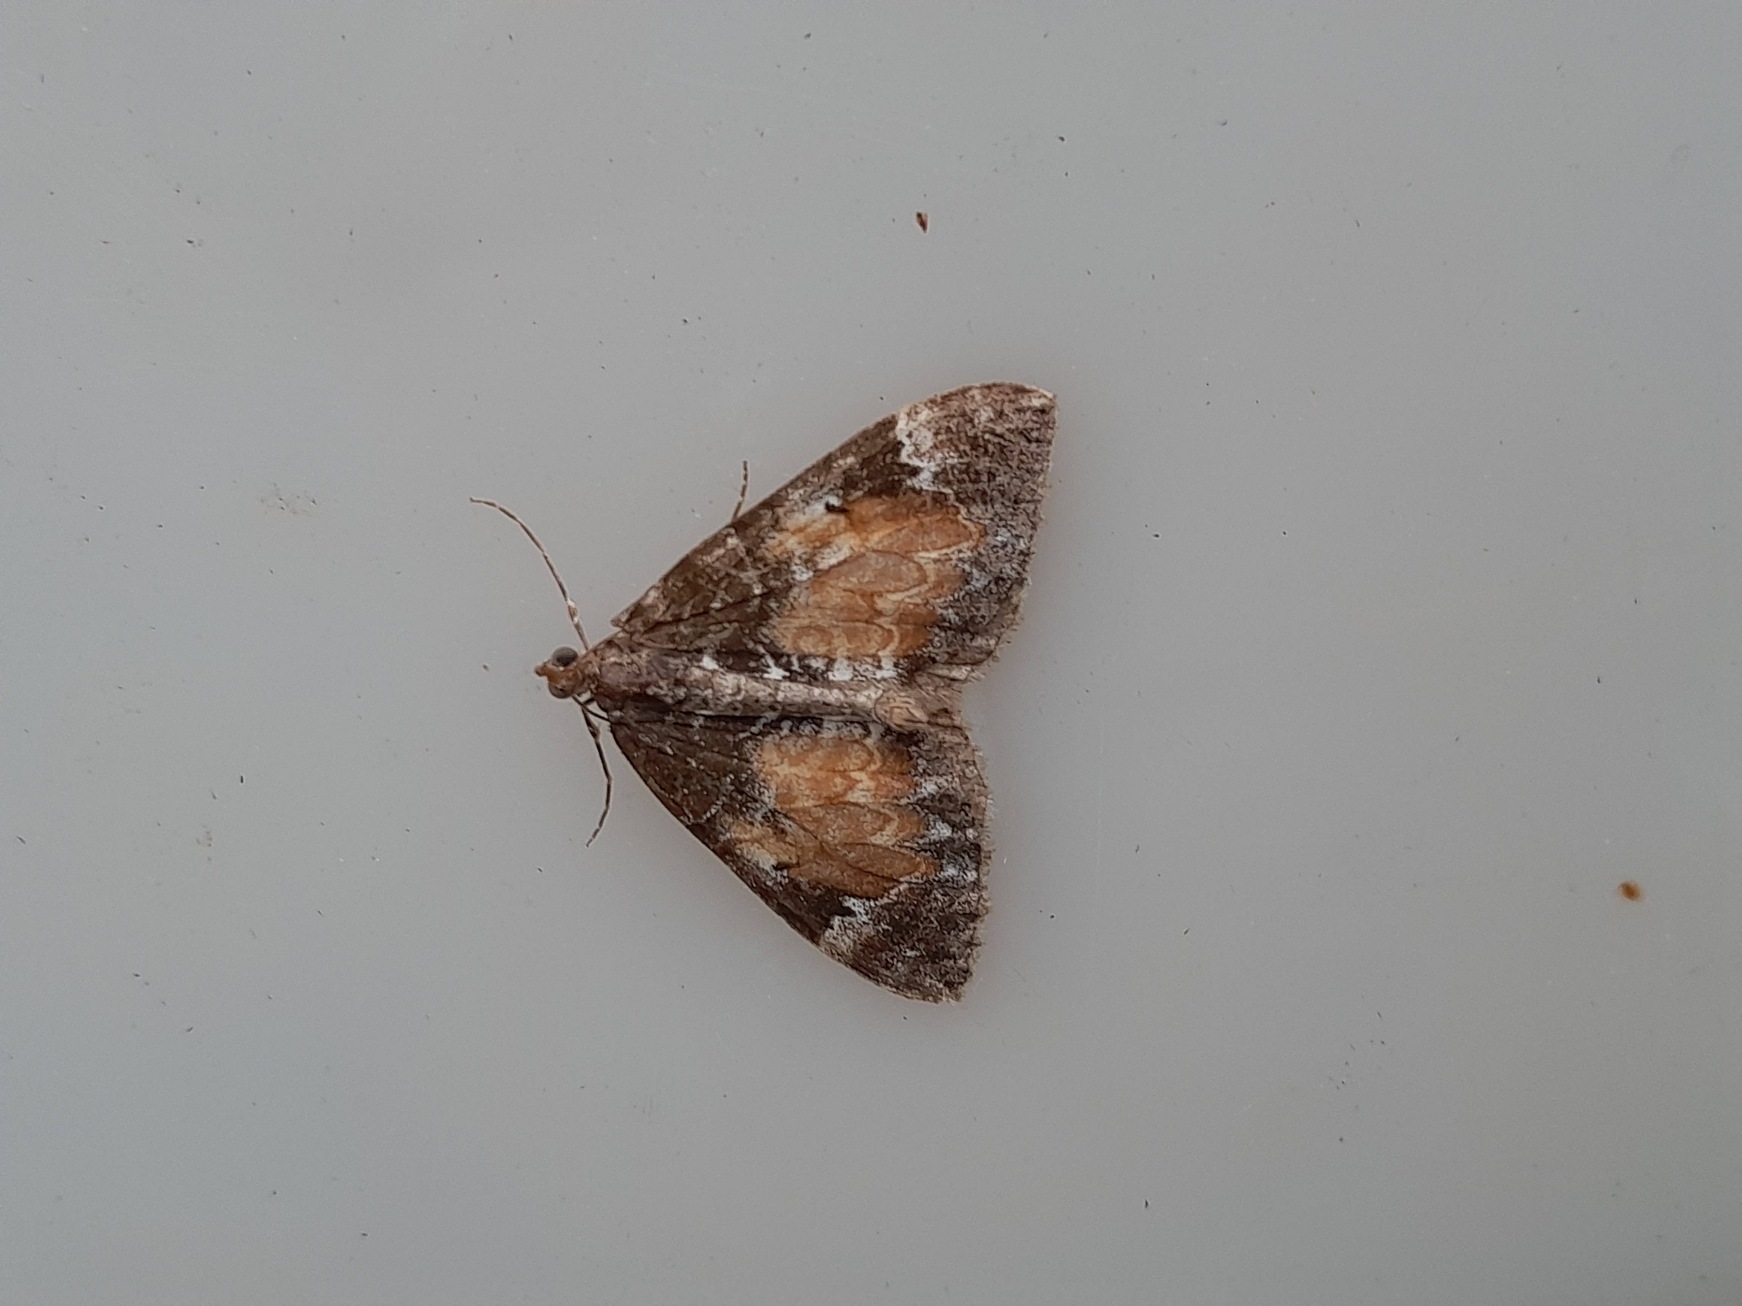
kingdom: Animalia
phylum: Arthropoda
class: Insecta
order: Lepidoptera
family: Geometridae
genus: Dysstroma
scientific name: Dysstroma truncata
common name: Jordbær-bladmåler
